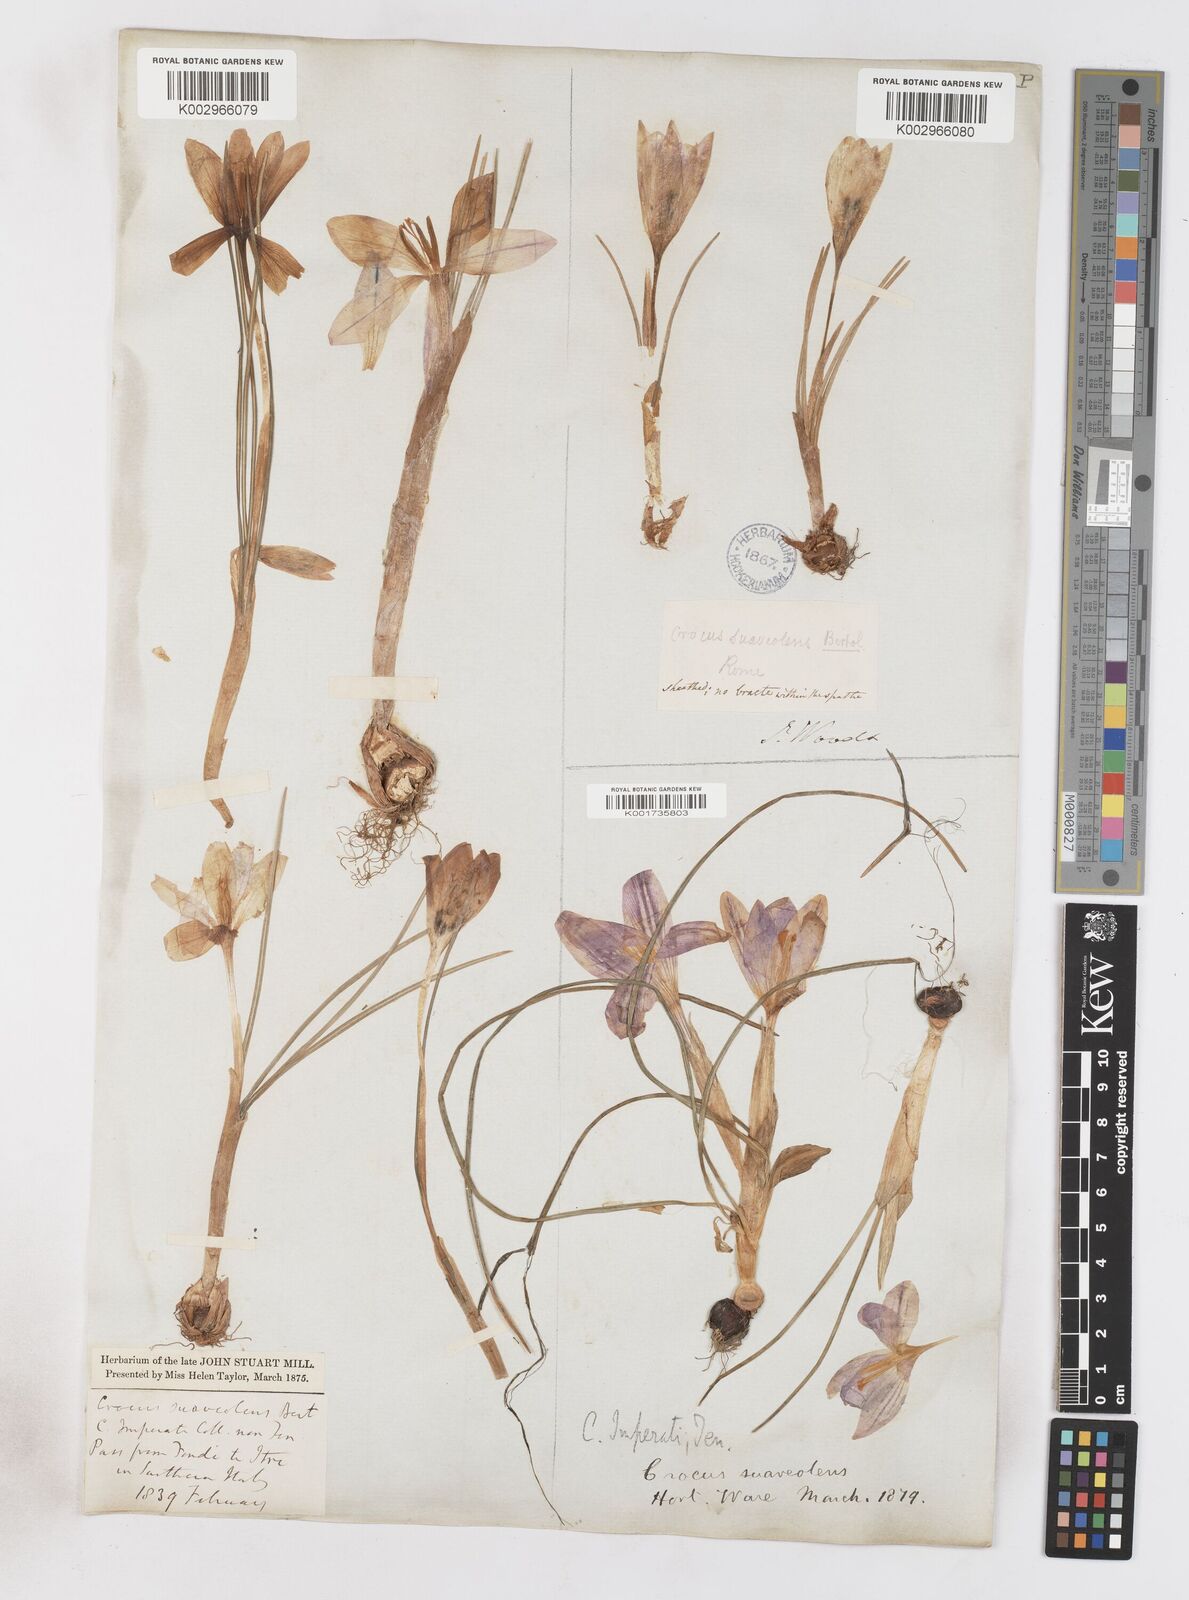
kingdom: Plantae
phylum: Tracheophyta
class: Liliopsida
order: Asparagales
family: Iridaceae
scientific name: Iridaceae
